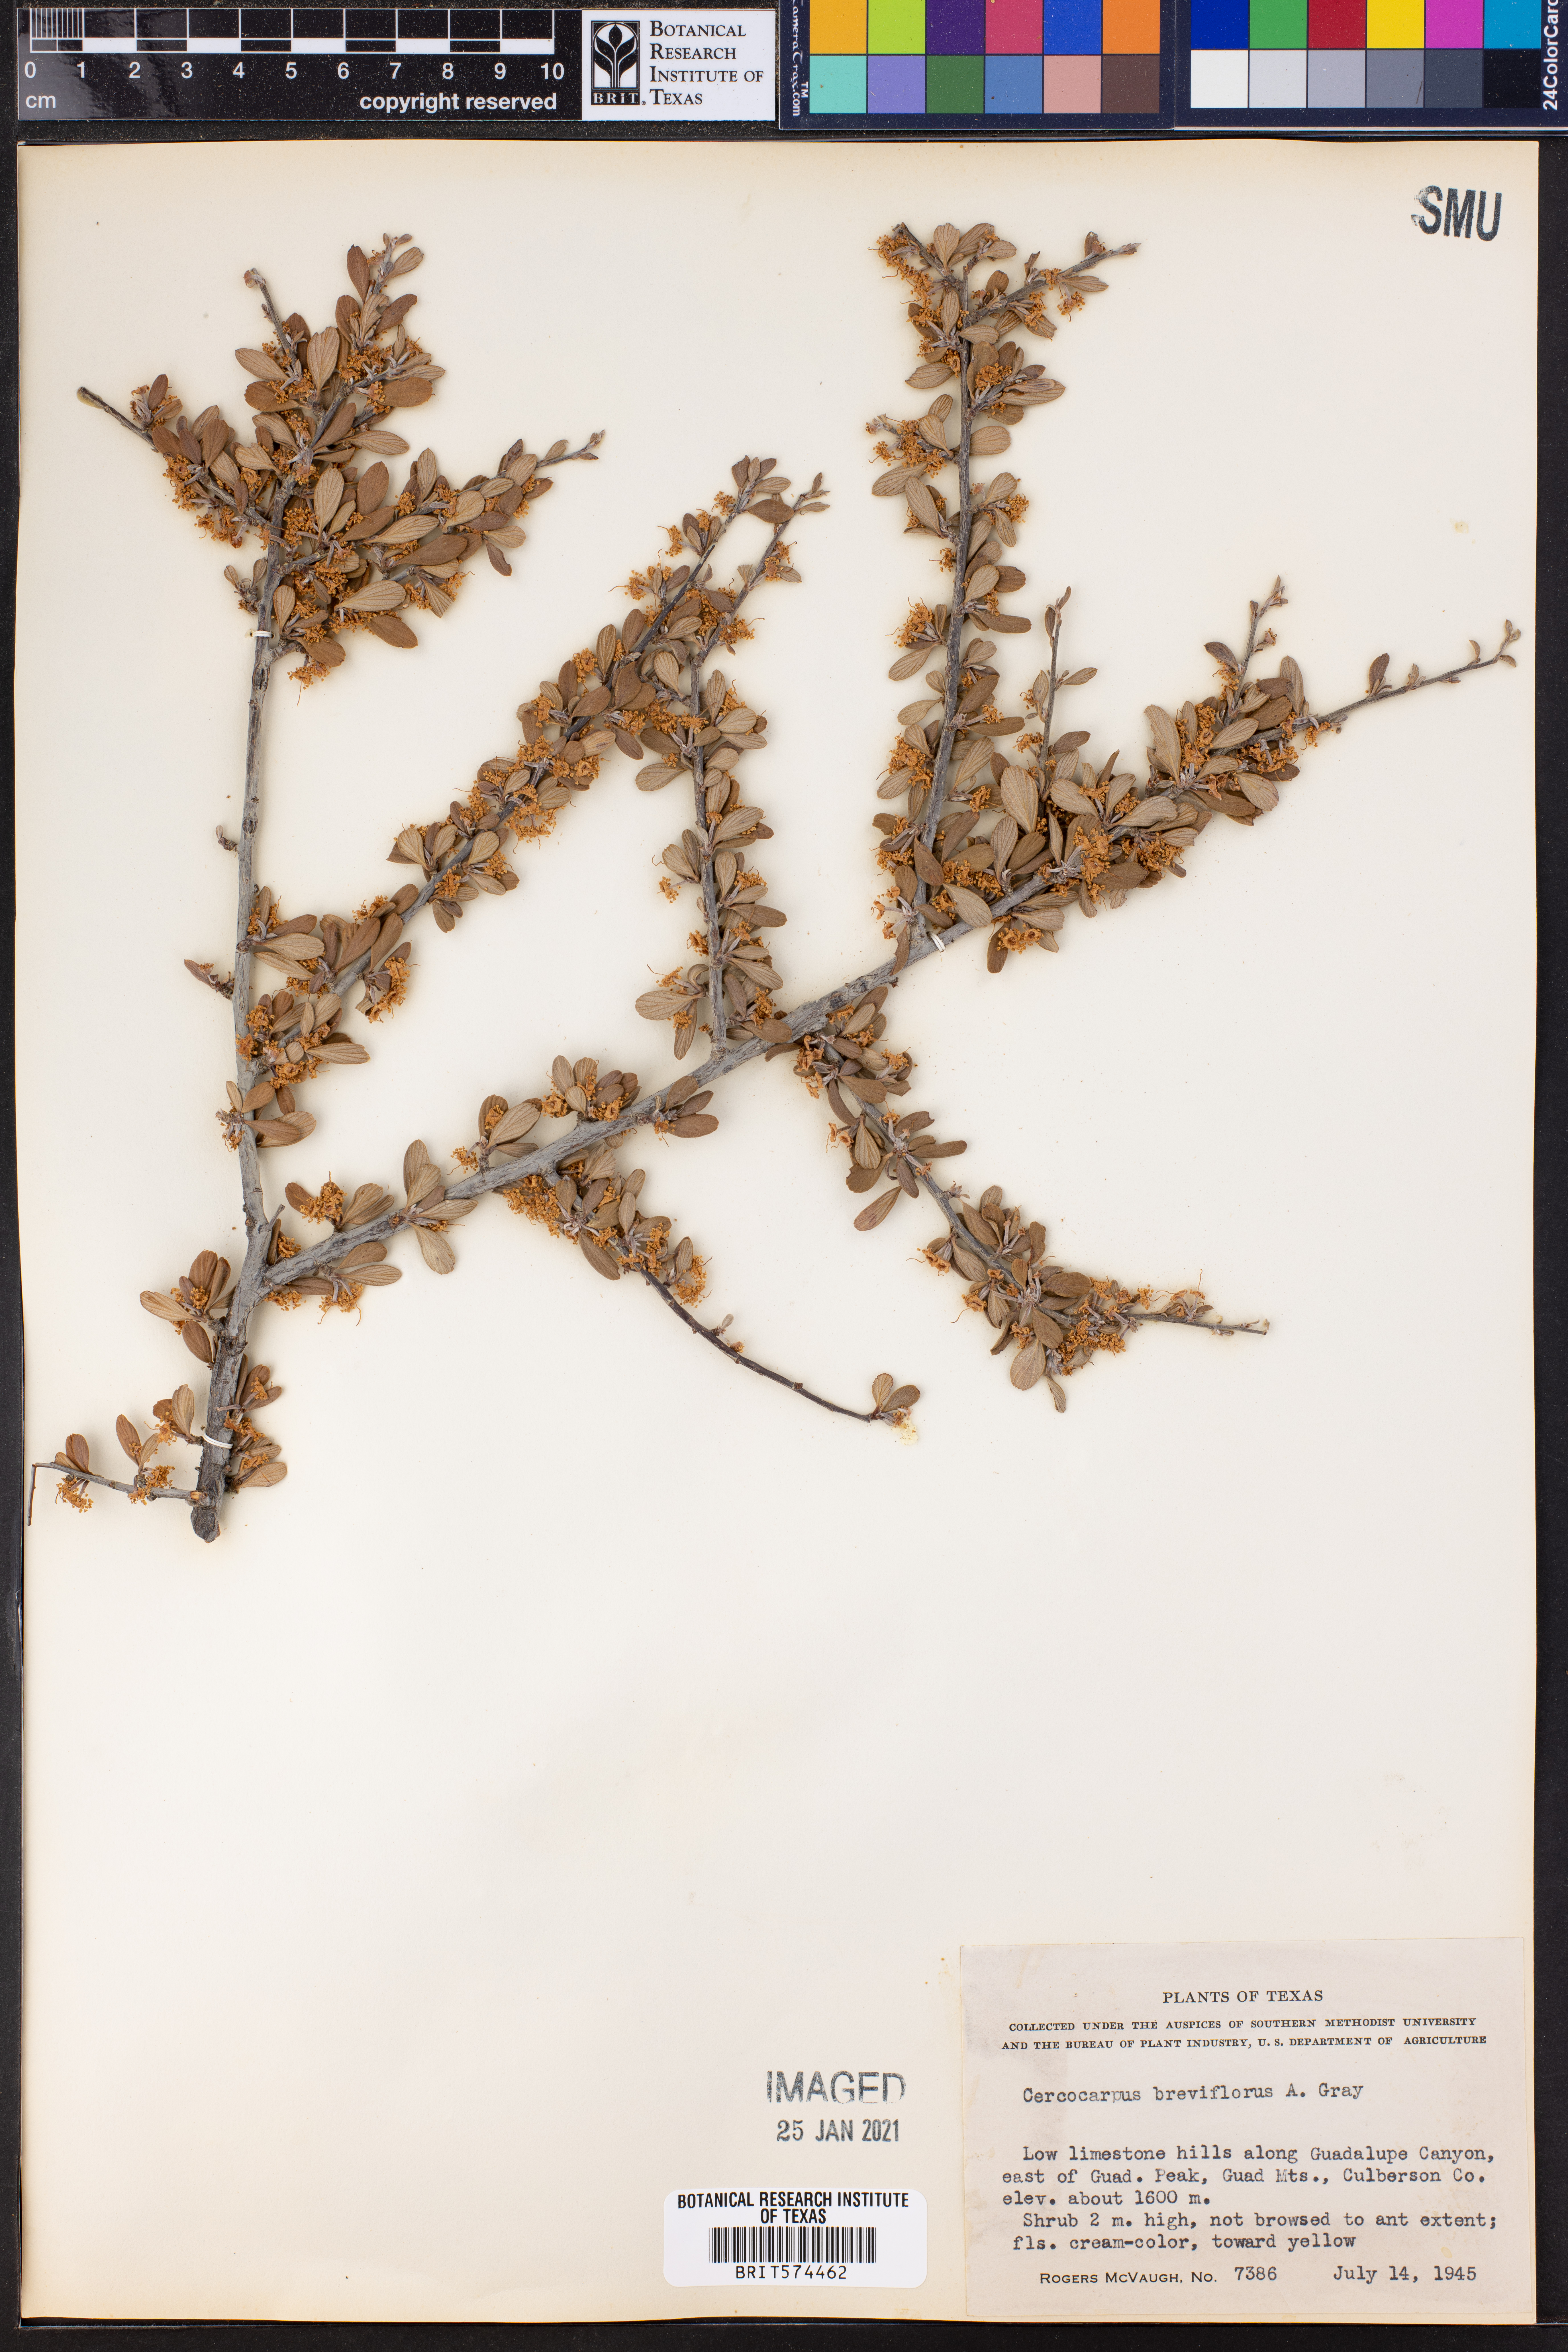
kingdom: Plantae
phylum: Tracheophyta
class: Magnoliopsida
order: Rosales
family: Rosaceae
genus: Cercocarpus
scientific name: Cercocarpus breviflorus
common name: Wright's mountain-mahogany
